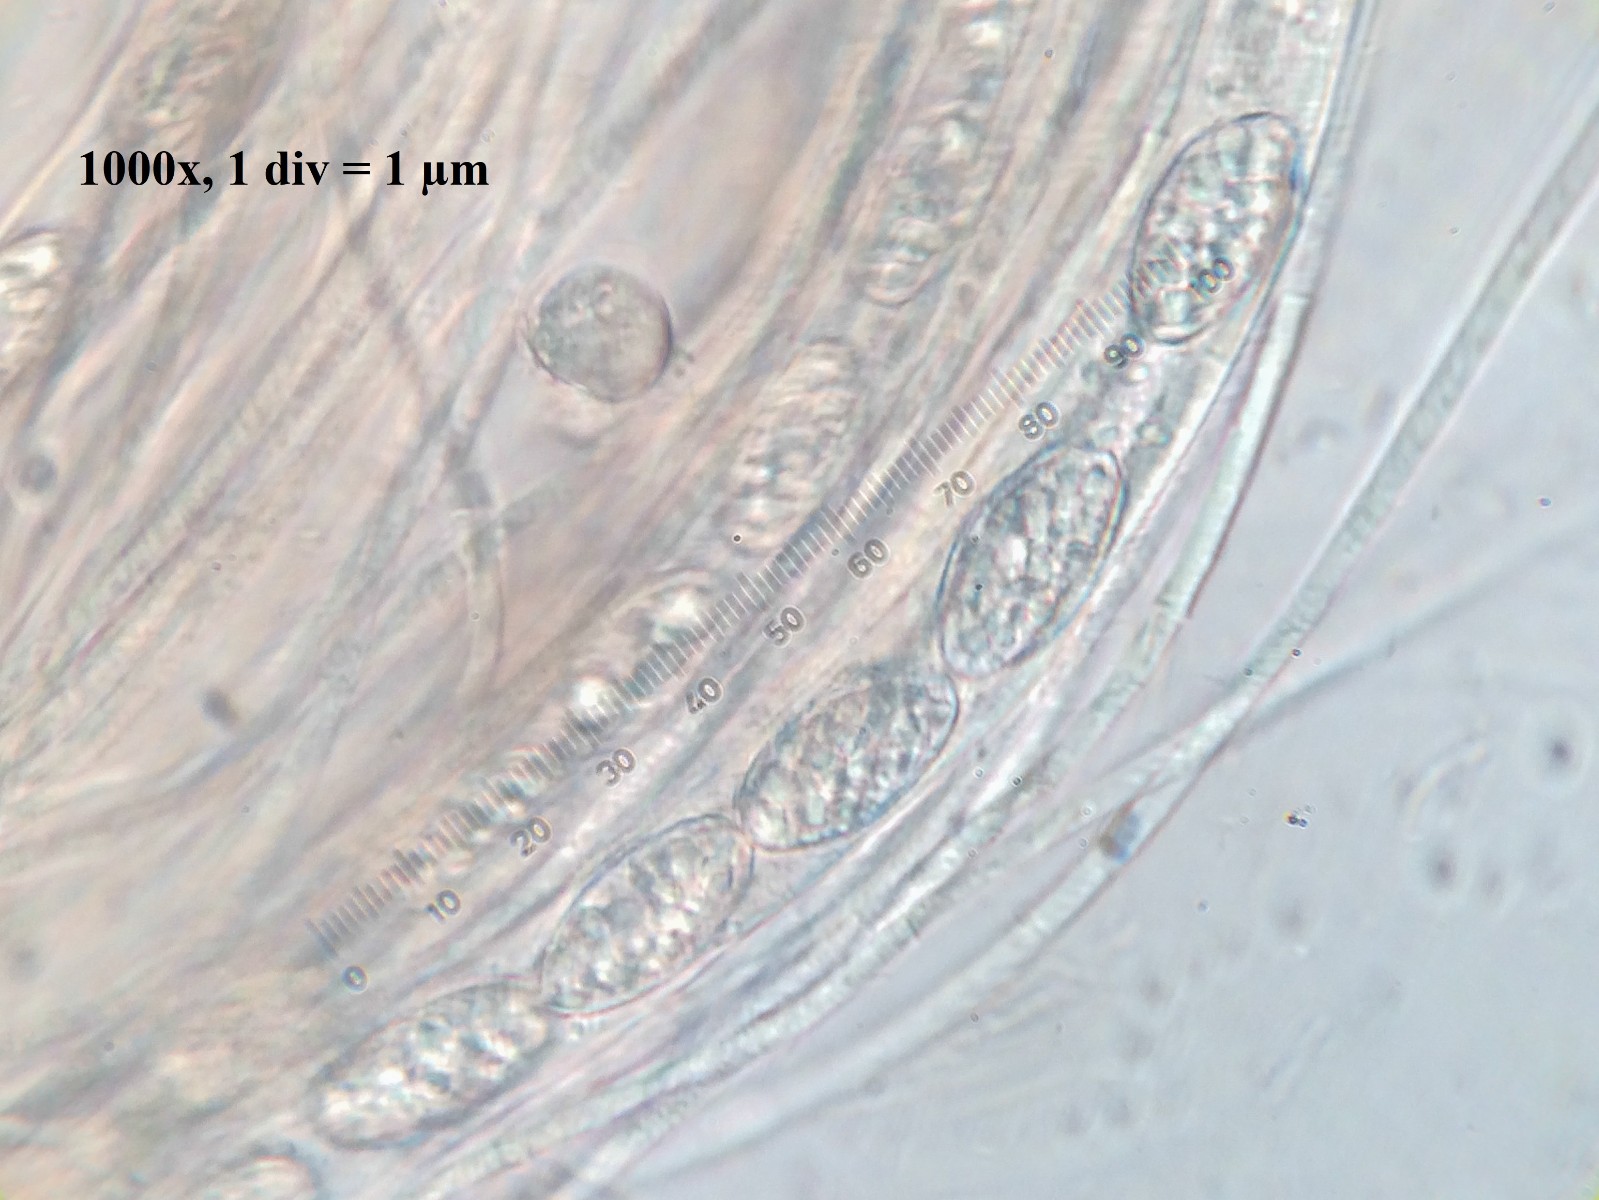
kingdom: Fungi
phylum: Ascomycota
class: Pezizomycetes
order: Pezizales
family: Pyronemataceae
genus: Trichophaea
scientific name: Trichophaea
